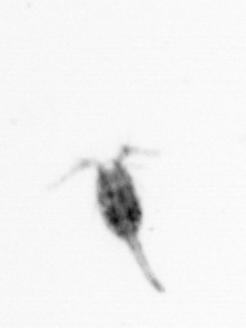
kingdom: Animalia
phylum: Arthropoda
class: Copepoda
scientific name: Copepoda
